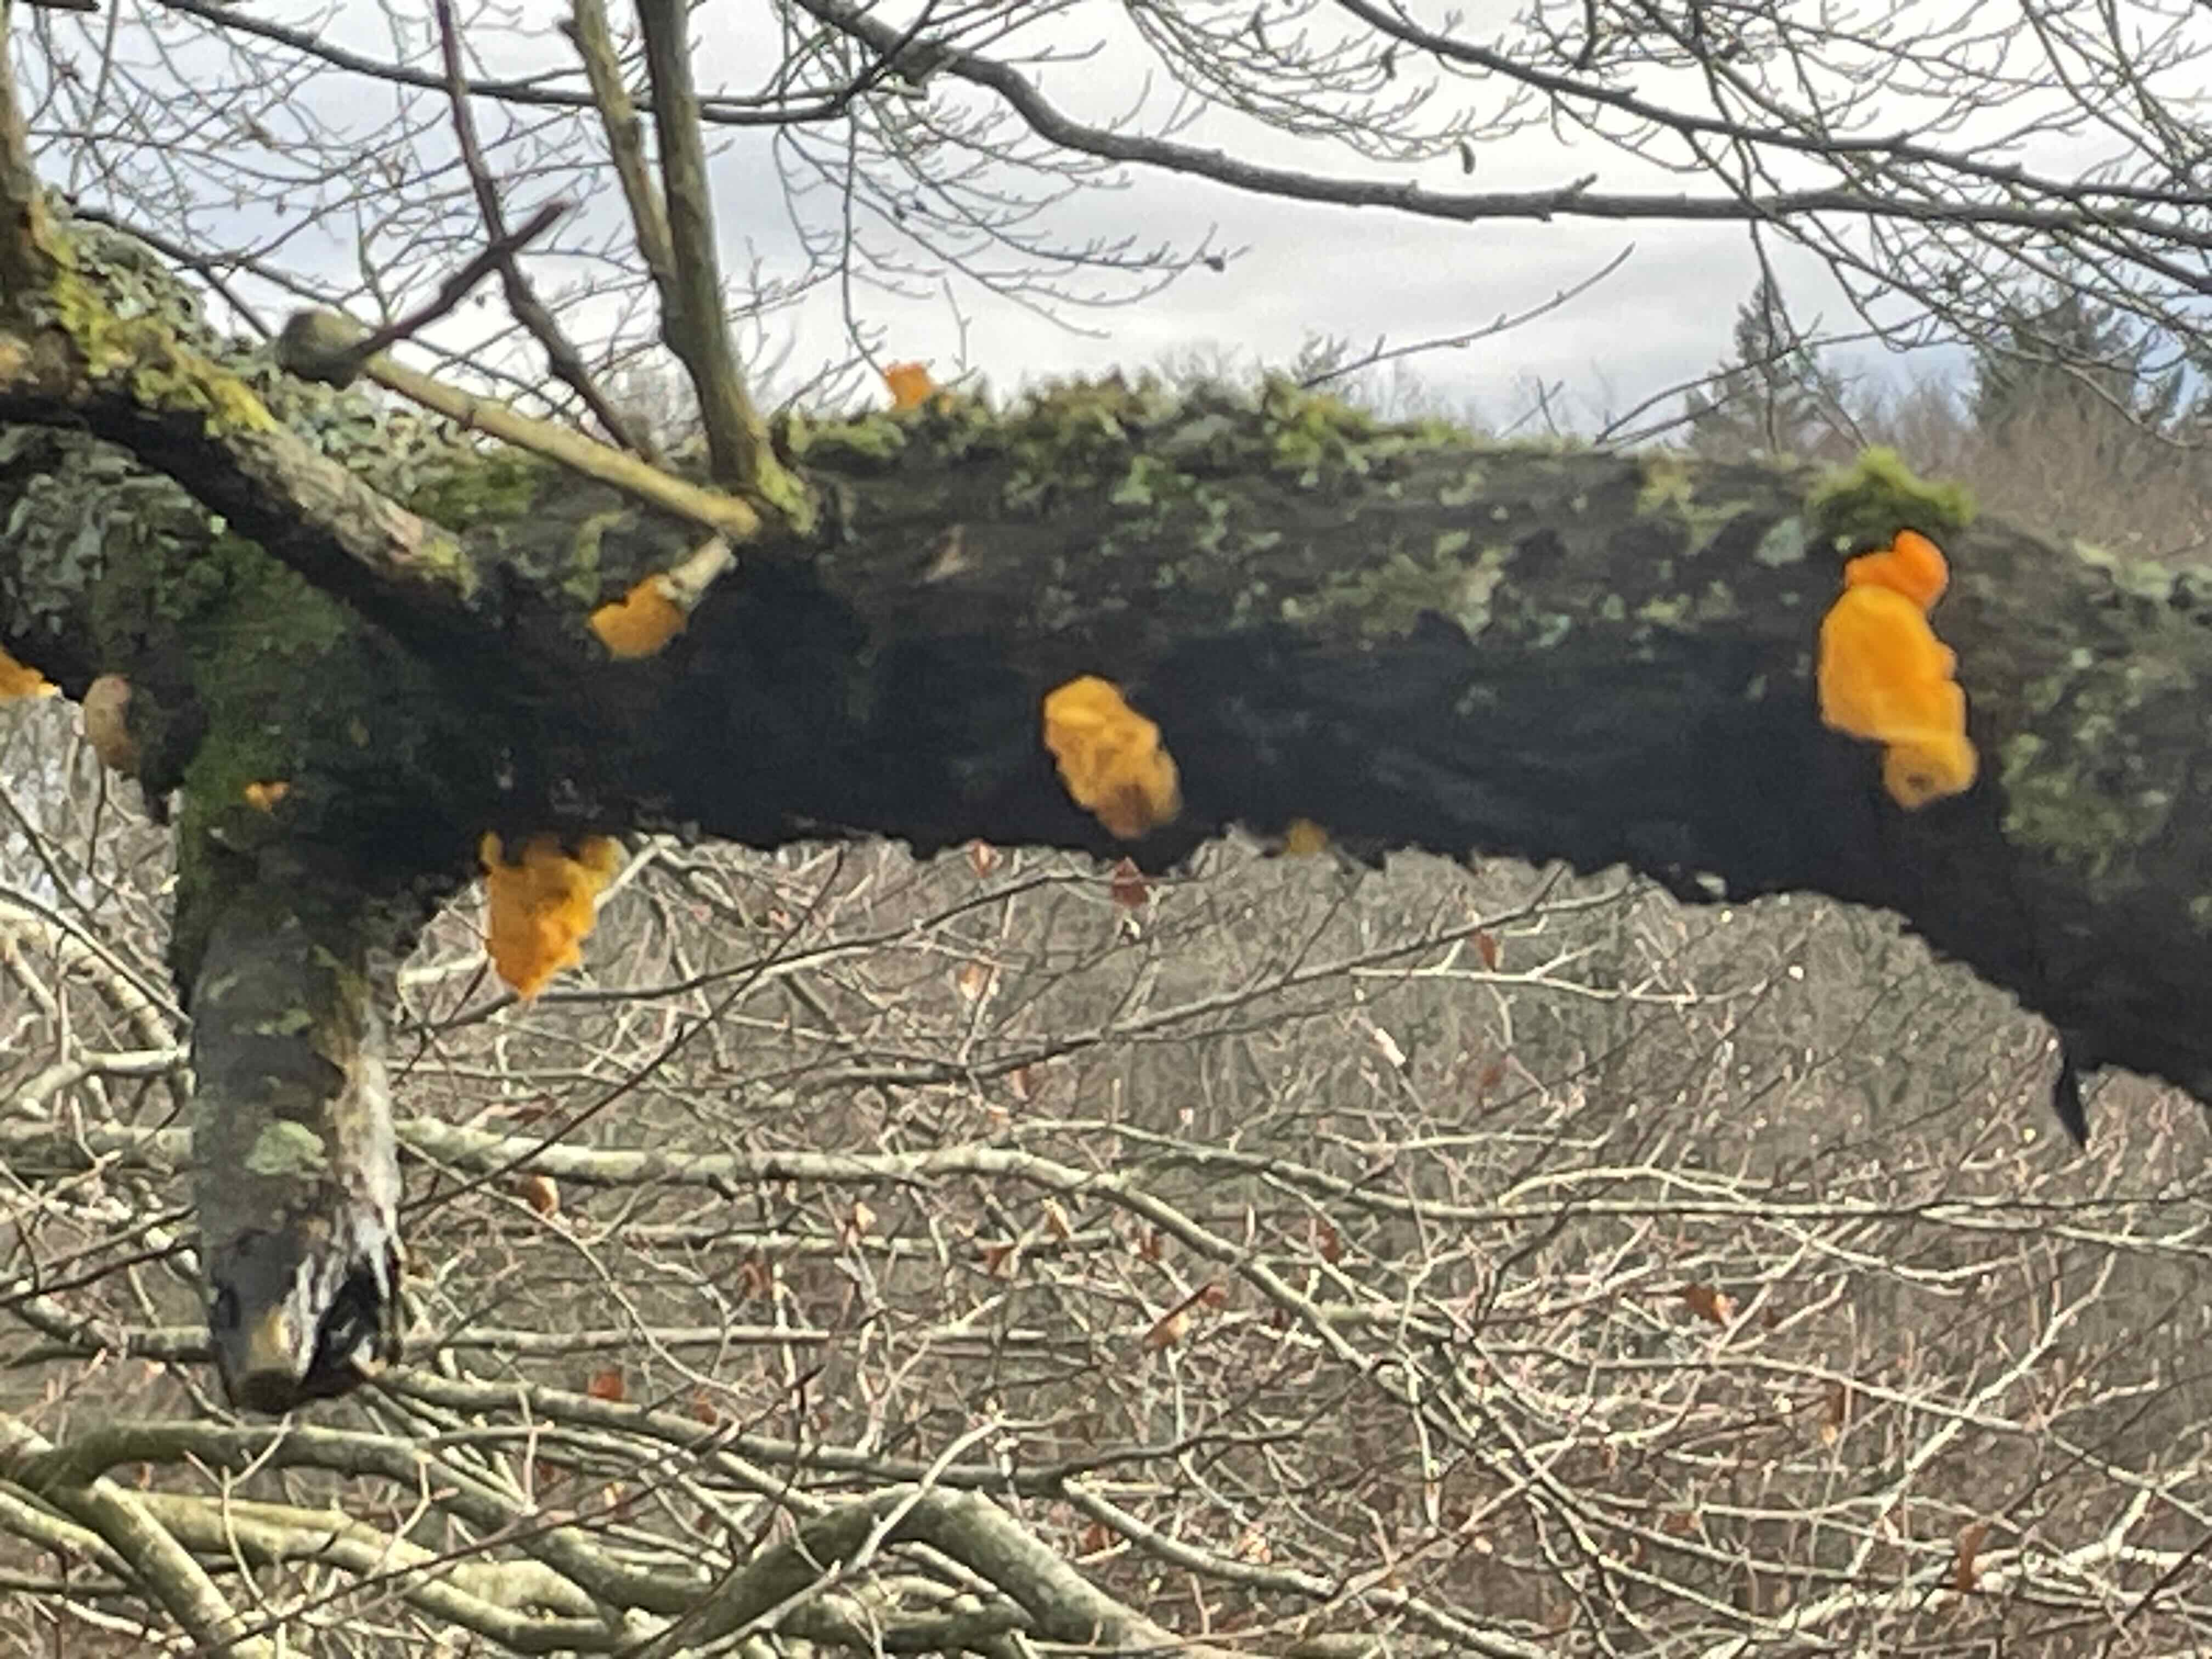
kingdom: Fungi
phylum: Basidiomycota
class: Tremellomycetes
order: Tremellales
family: Tremellaceae
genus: Tremella
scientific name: Tremella mesenterica
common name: gul bævresvamp
